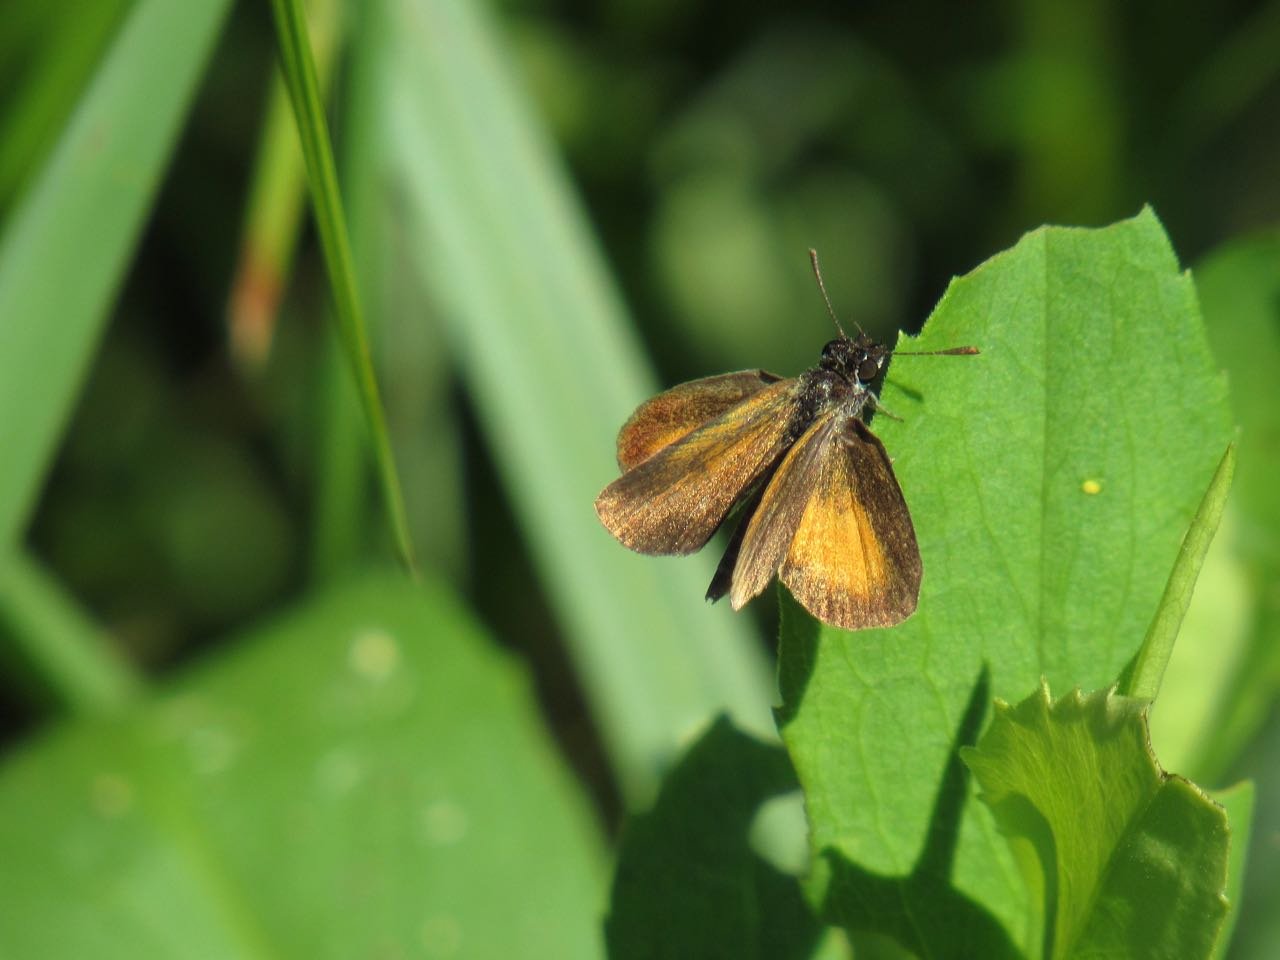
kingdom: Animalia
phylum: Arthropoda
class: Insecta
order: Lepidoptera
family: Hesperiidae
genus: Ancyloxypha
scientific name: Ancyloxypha numitor
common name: Least Skipper
